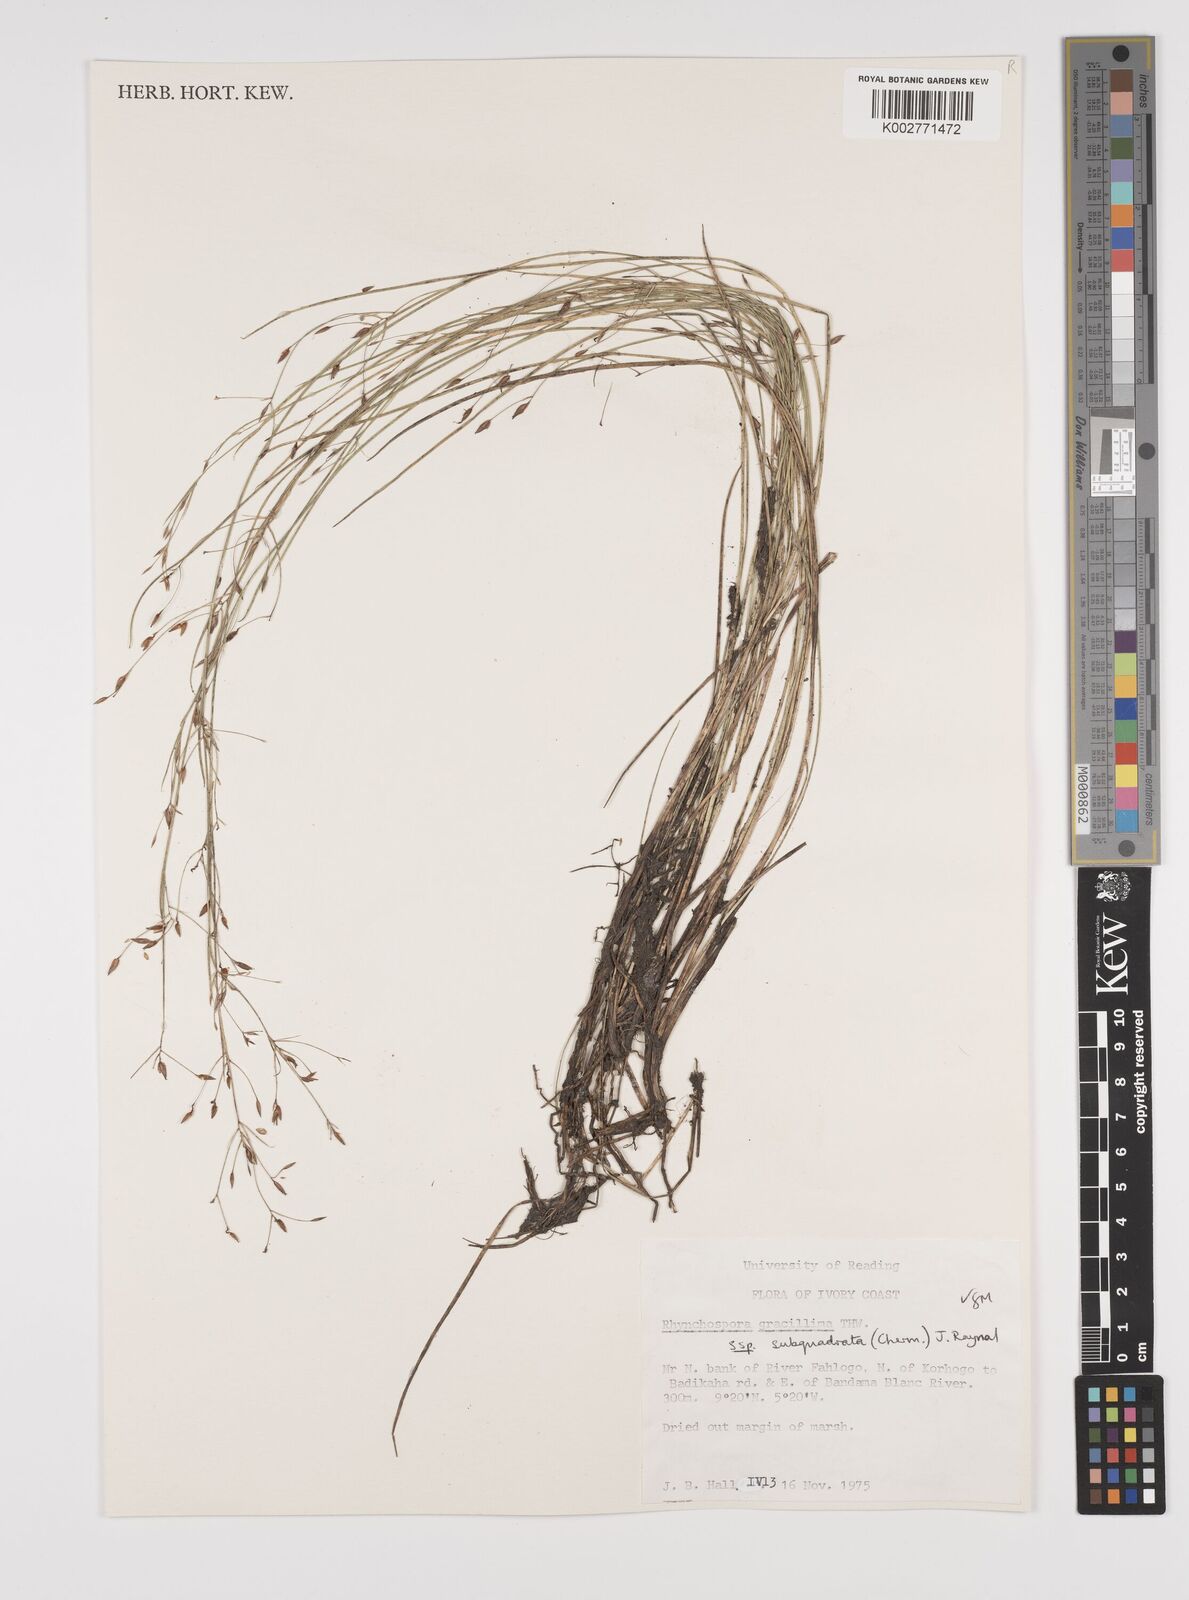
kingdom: Plantae
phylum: Tracheophyta
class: Liliopsida
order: Poales
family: Cyperaceae
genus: Rhynchospora
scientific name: Rhynchospora gracillima
